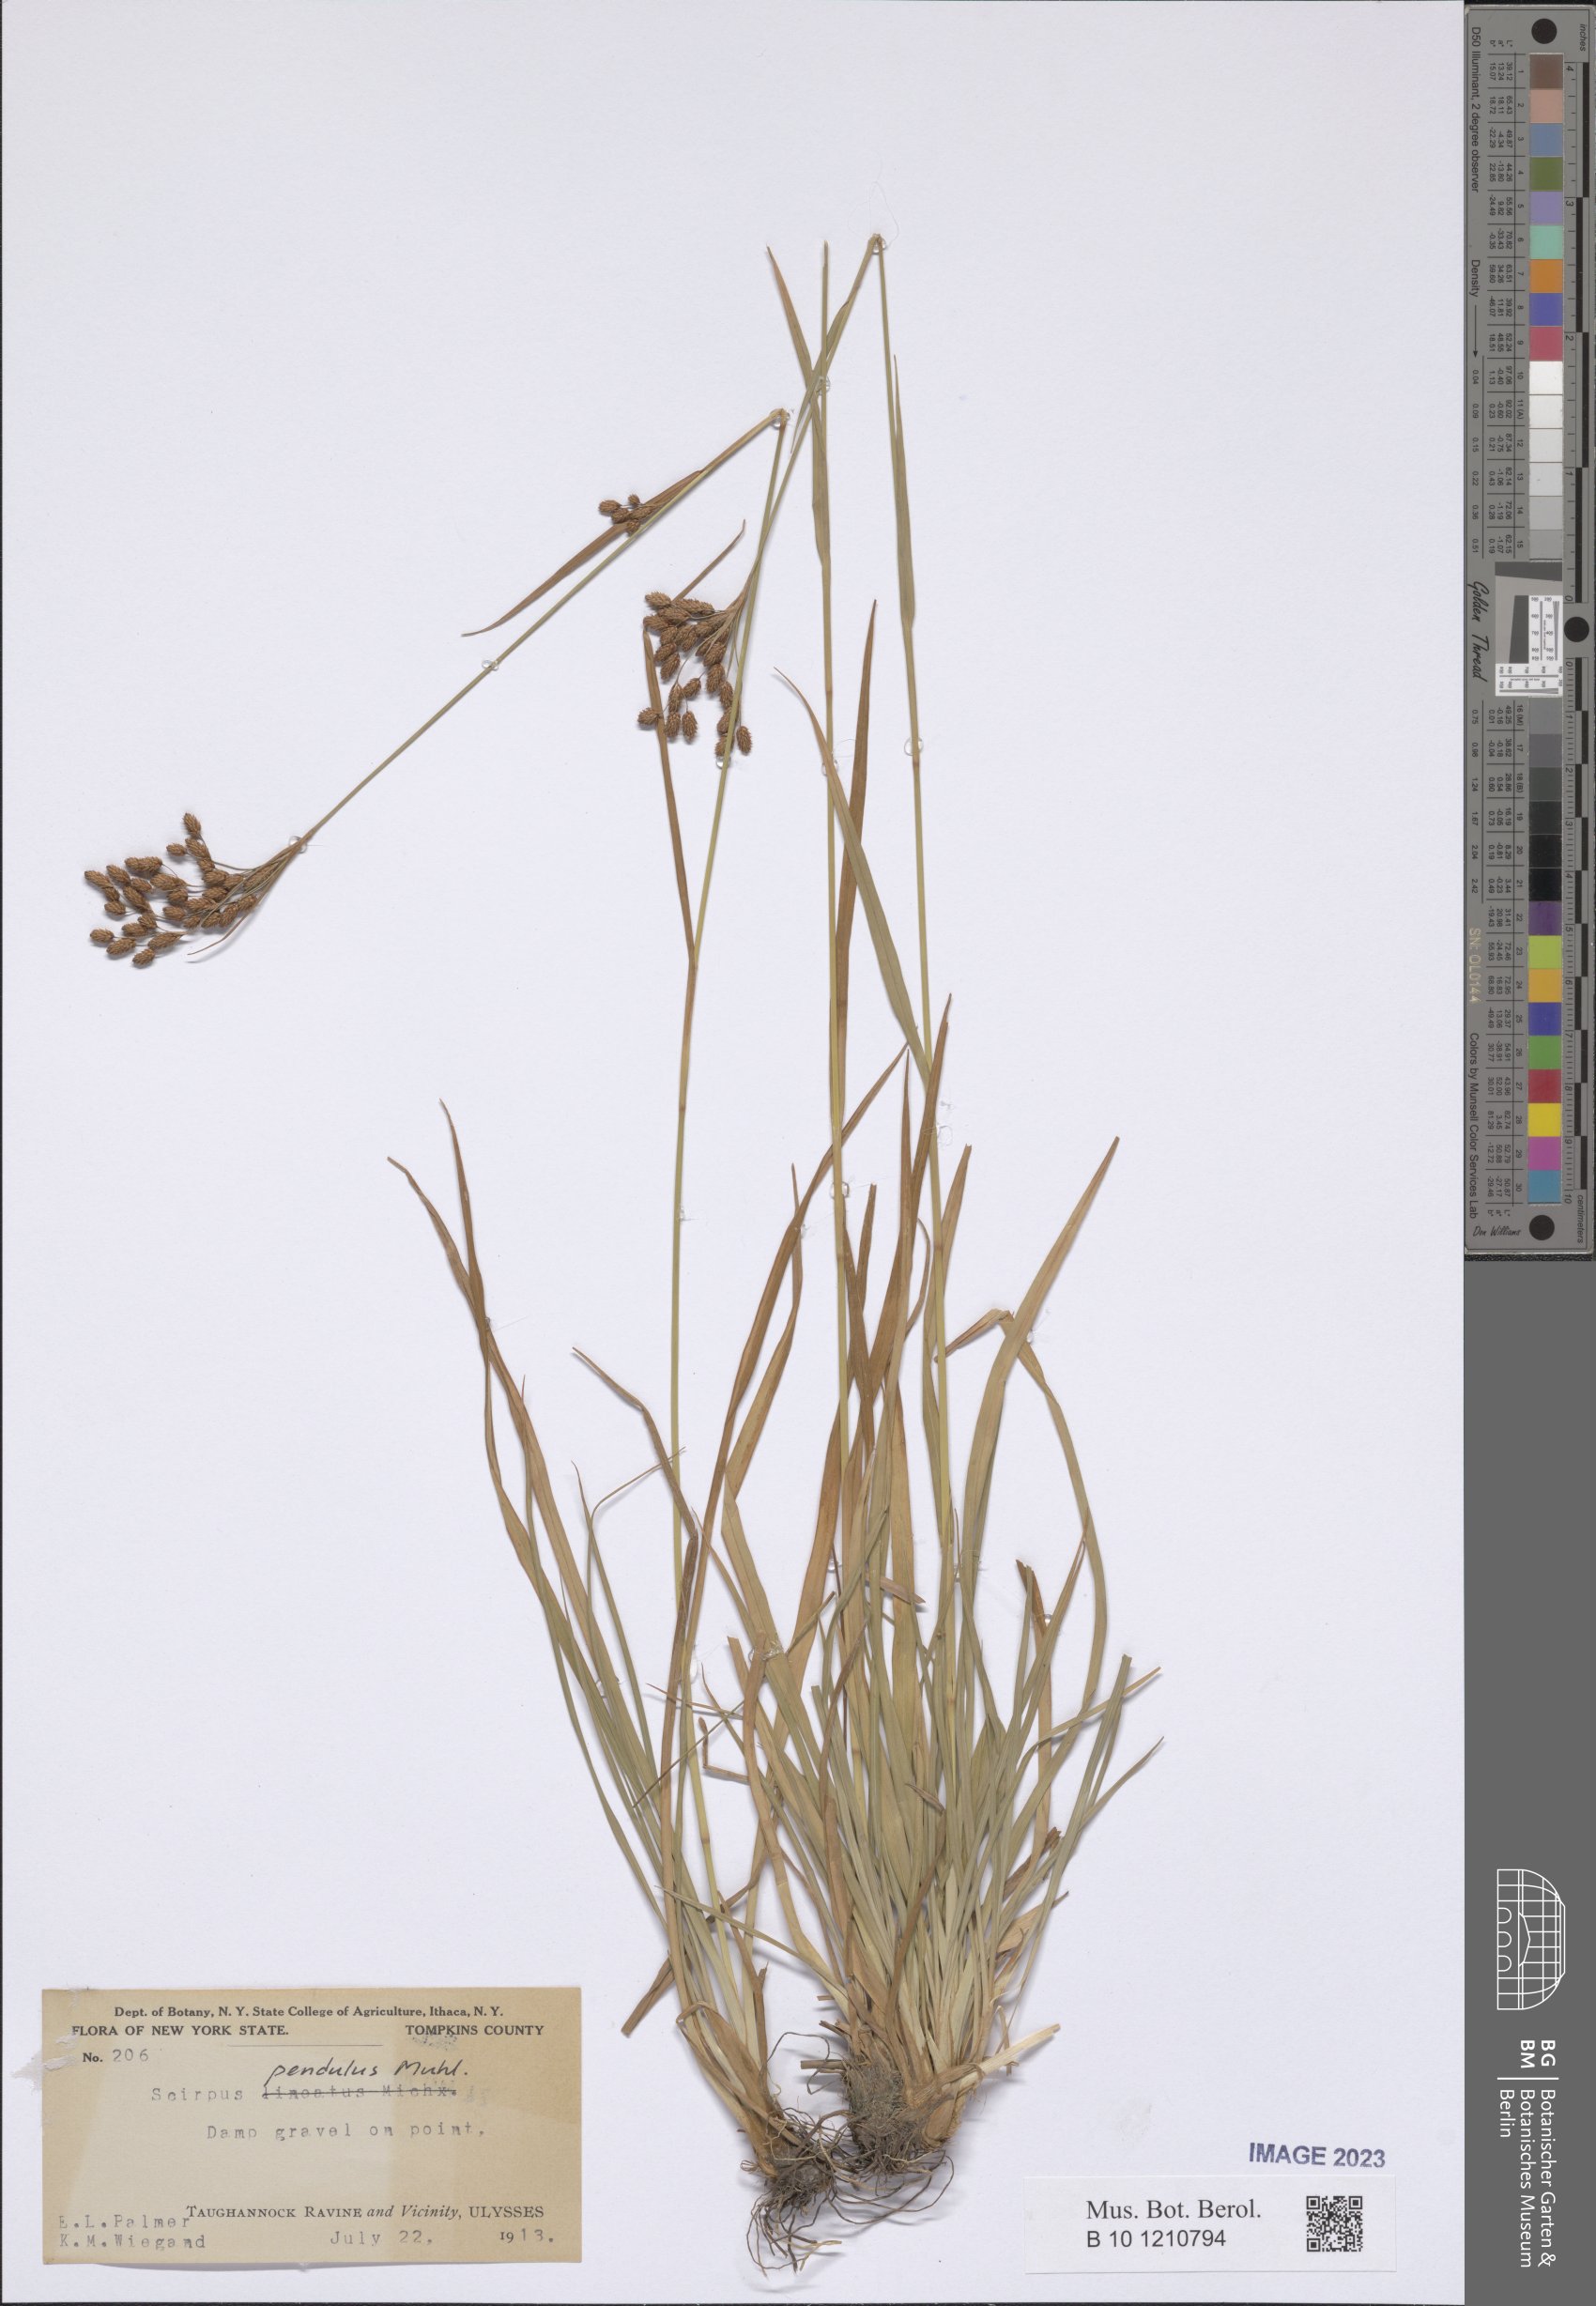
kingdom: Plantae
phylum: Tracheophyta
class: Liliopsida
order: Poales
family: Cyperaceae
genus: Scirpus
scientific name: Scirpus pendulus
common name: Nodding bulrush
